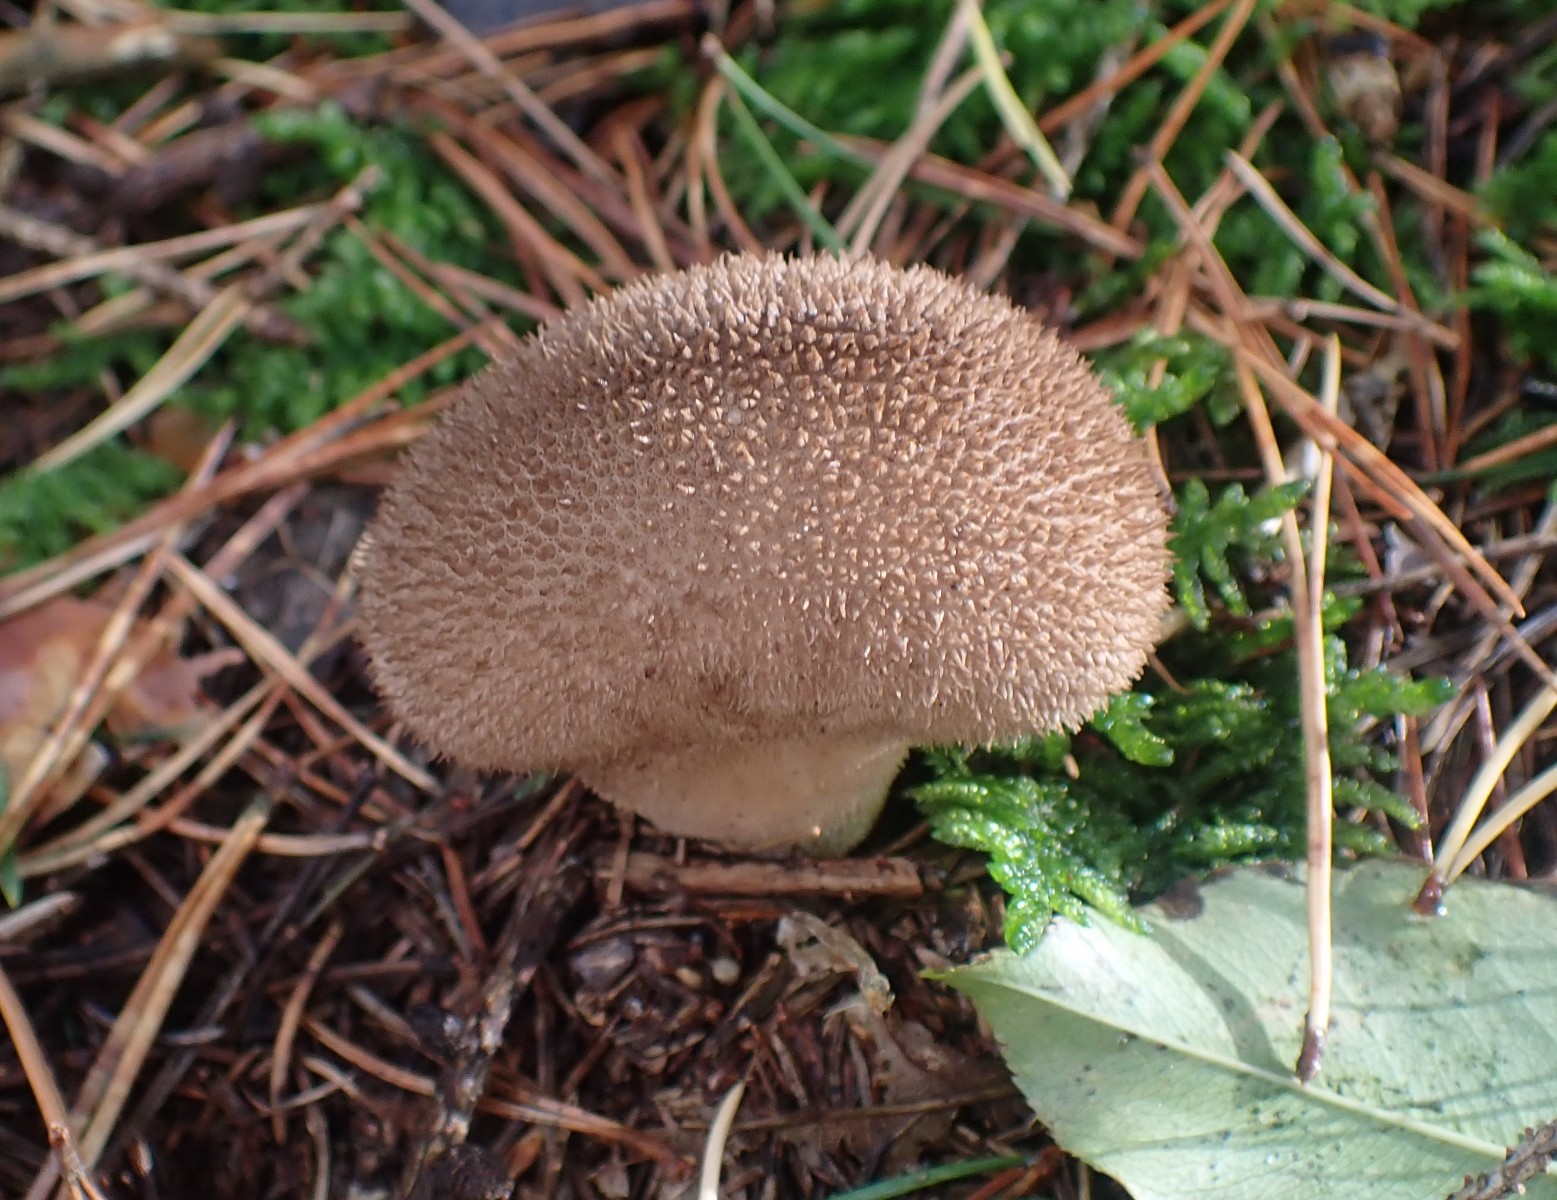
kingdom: Fungi
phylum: Basidiomycota
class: Agaricomycetes
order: Agaricales
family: Lycoperdaceae
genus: Lycoperdon
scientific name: Lycoperdon nigrescens
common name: sortagtig støvbold
